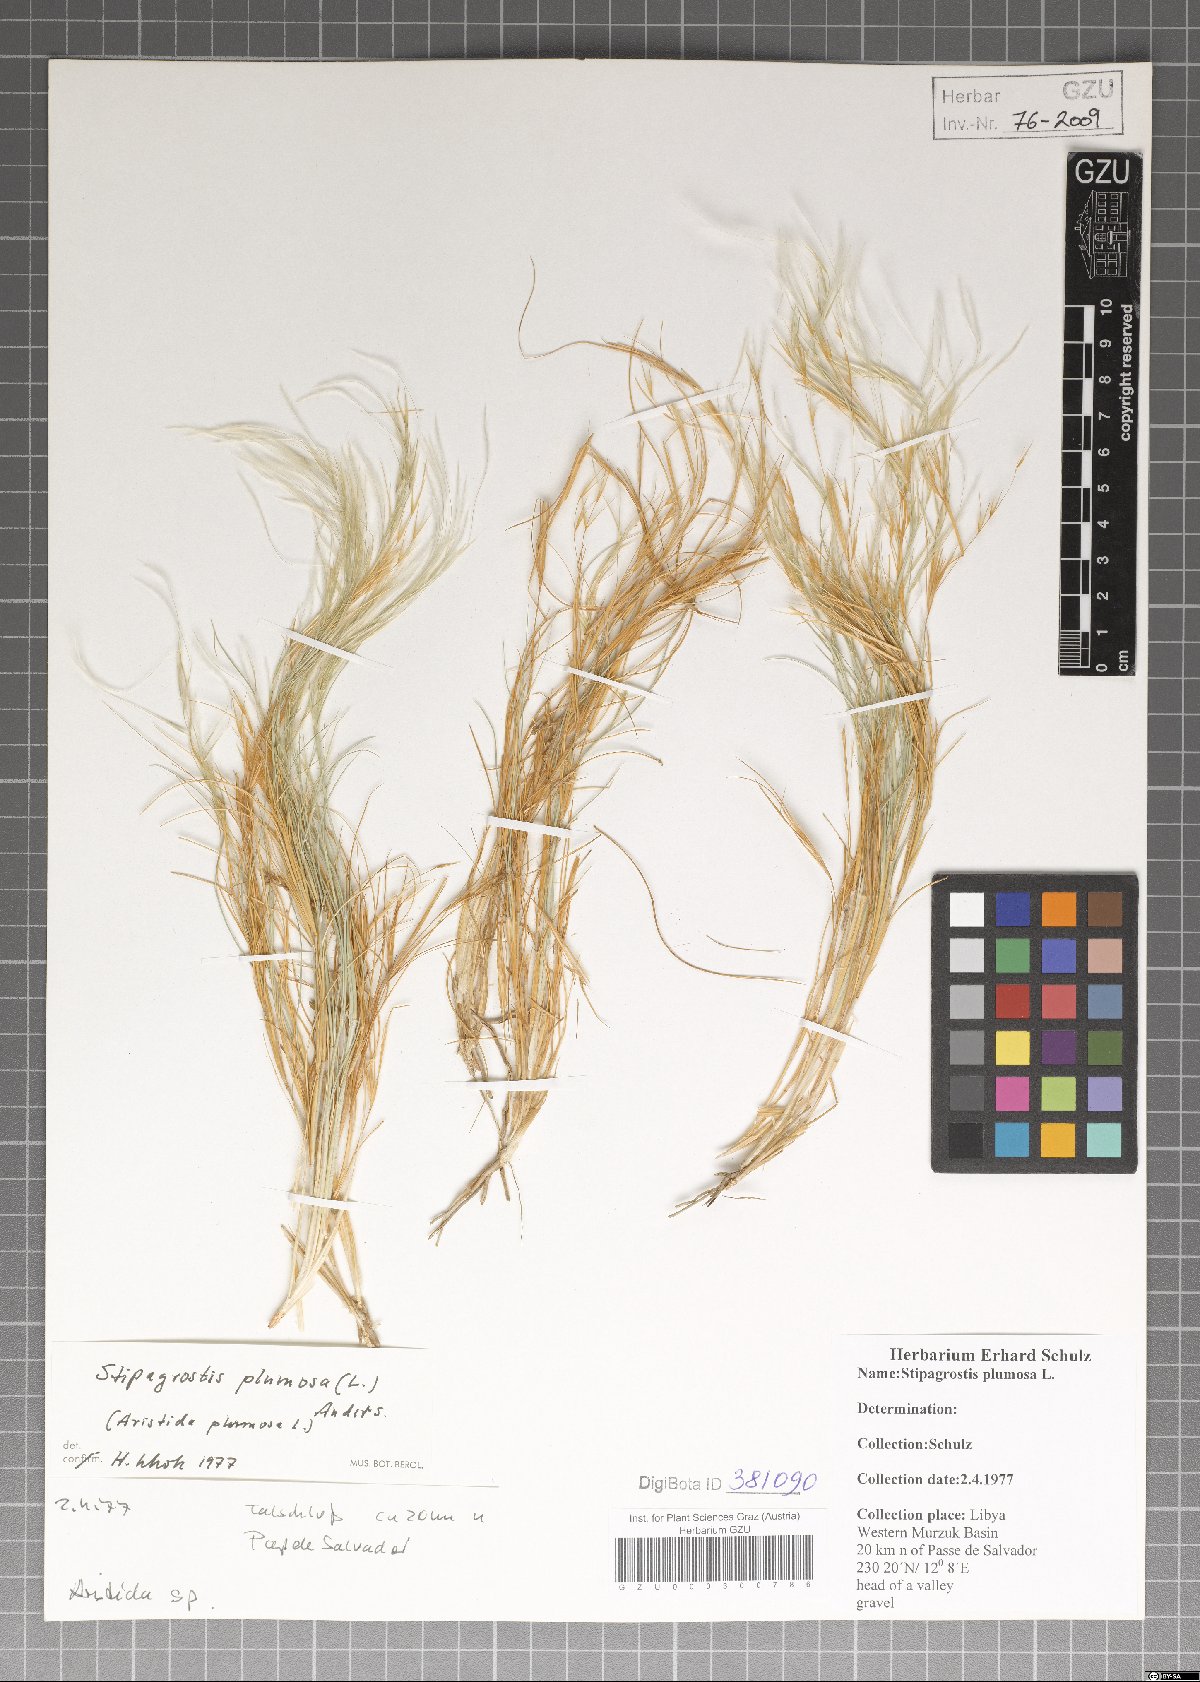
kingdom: Plantae
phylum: Tracheophyta
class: Liliopsida
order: Poales
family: Poaceae
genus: Stipagrostis
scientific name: Stipagrostis plumosa
